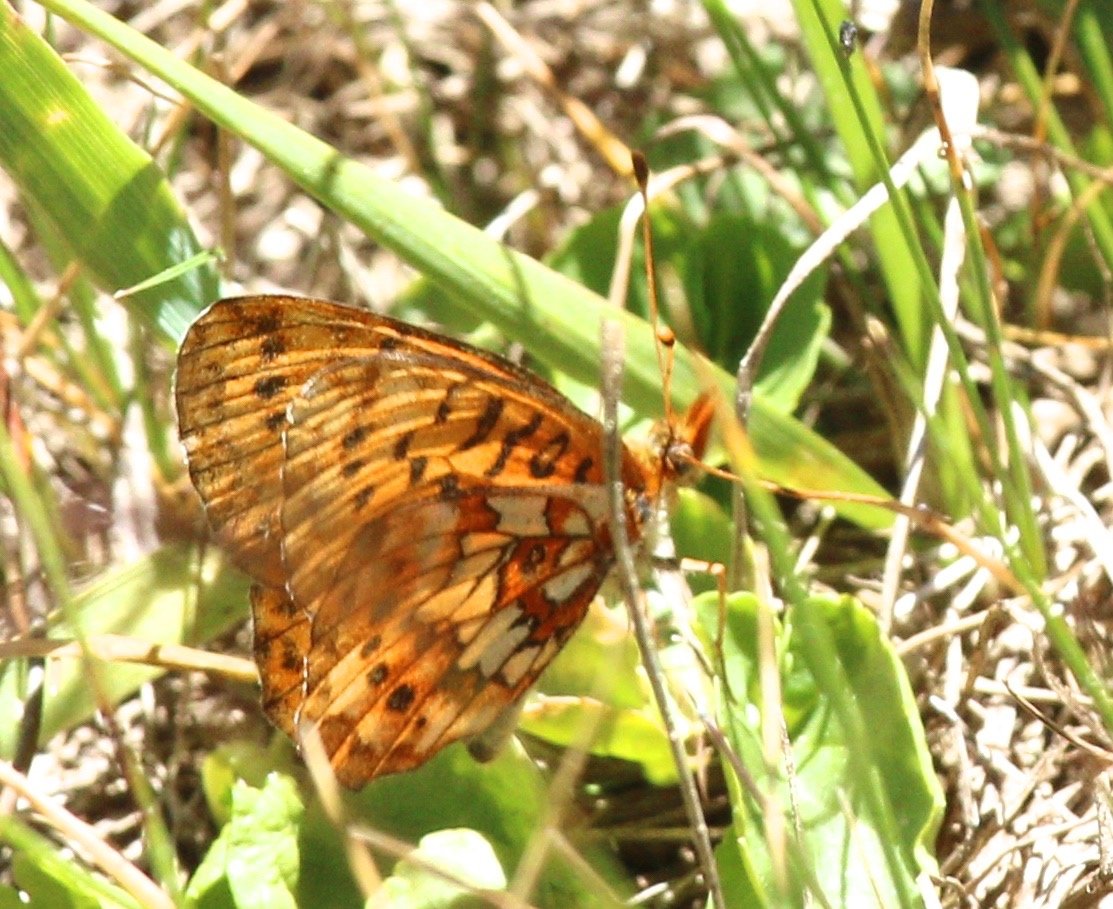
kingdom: Animalia
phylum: Arthropoda
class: Insecta
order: Lepidoptera
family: Nymphalidae
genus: Boloria
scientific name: Boloria kriemhild
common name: Relict Fritillary
